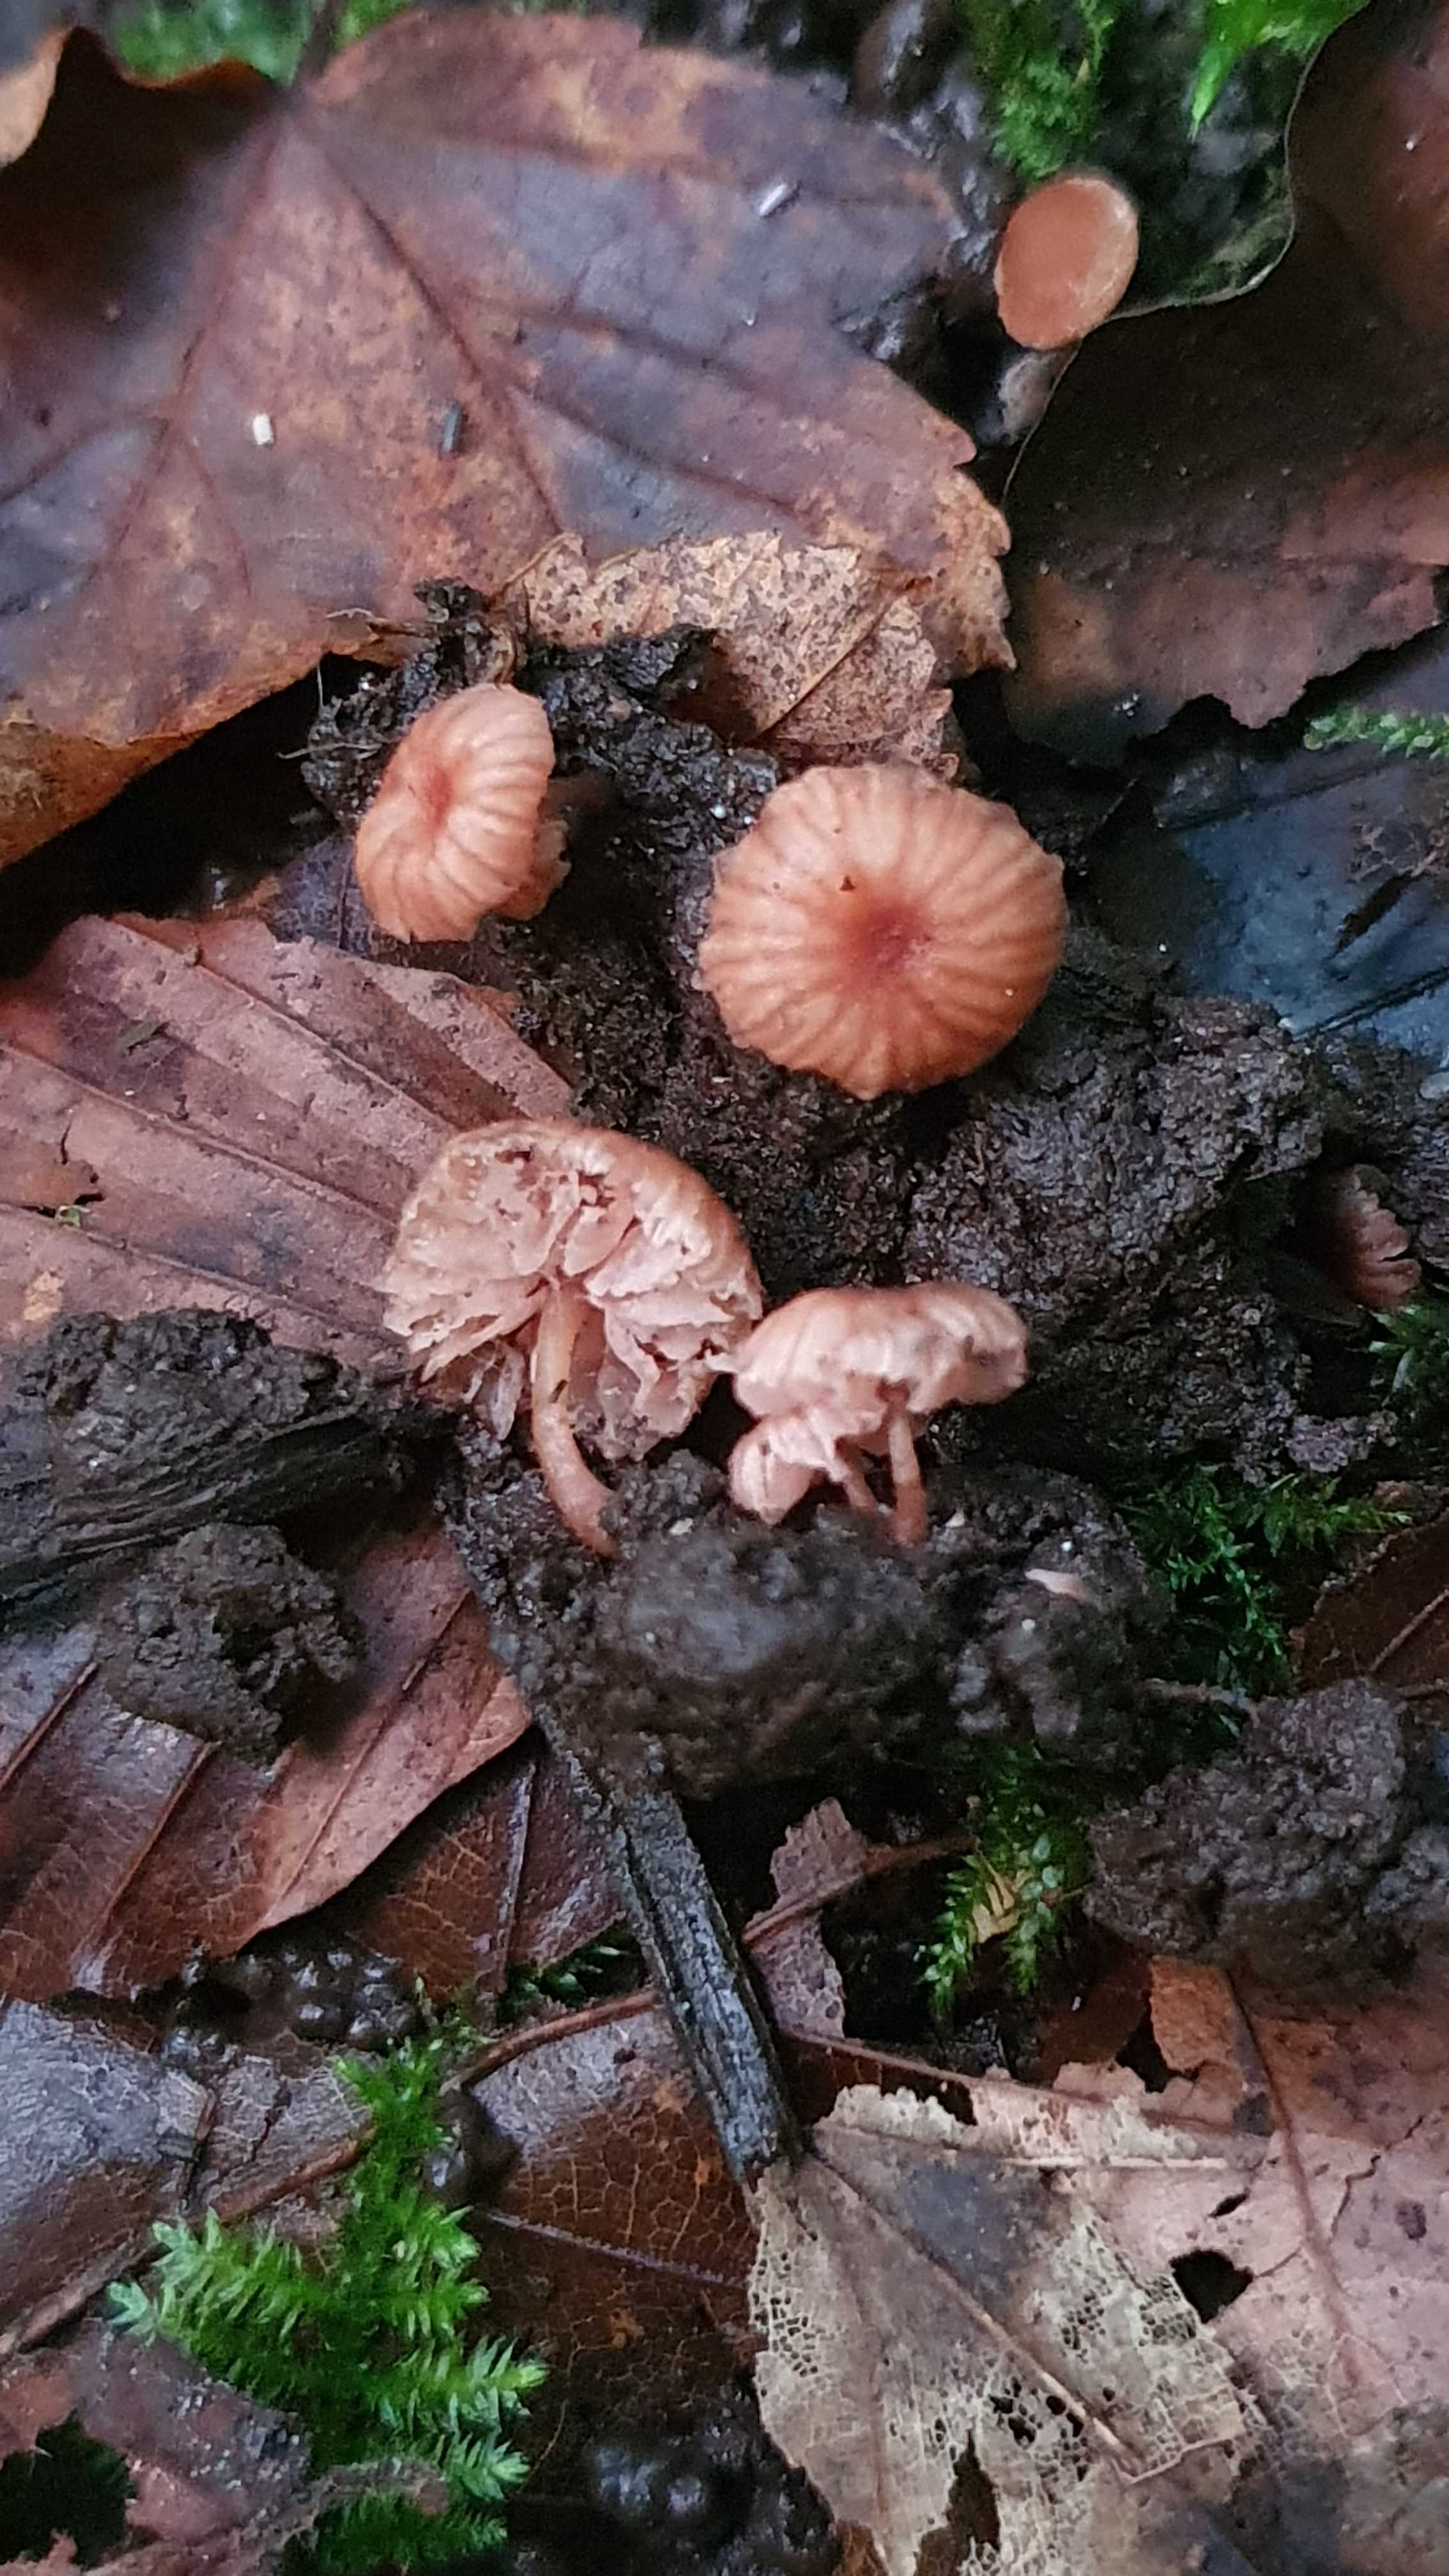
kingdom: Fungi
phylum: Basidiomycota
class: Agaricomycetes
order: Agaricales
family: Hydnangiaceae
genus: Laccaria
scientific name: Laccaria tortilis
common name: krybende ametysthat
